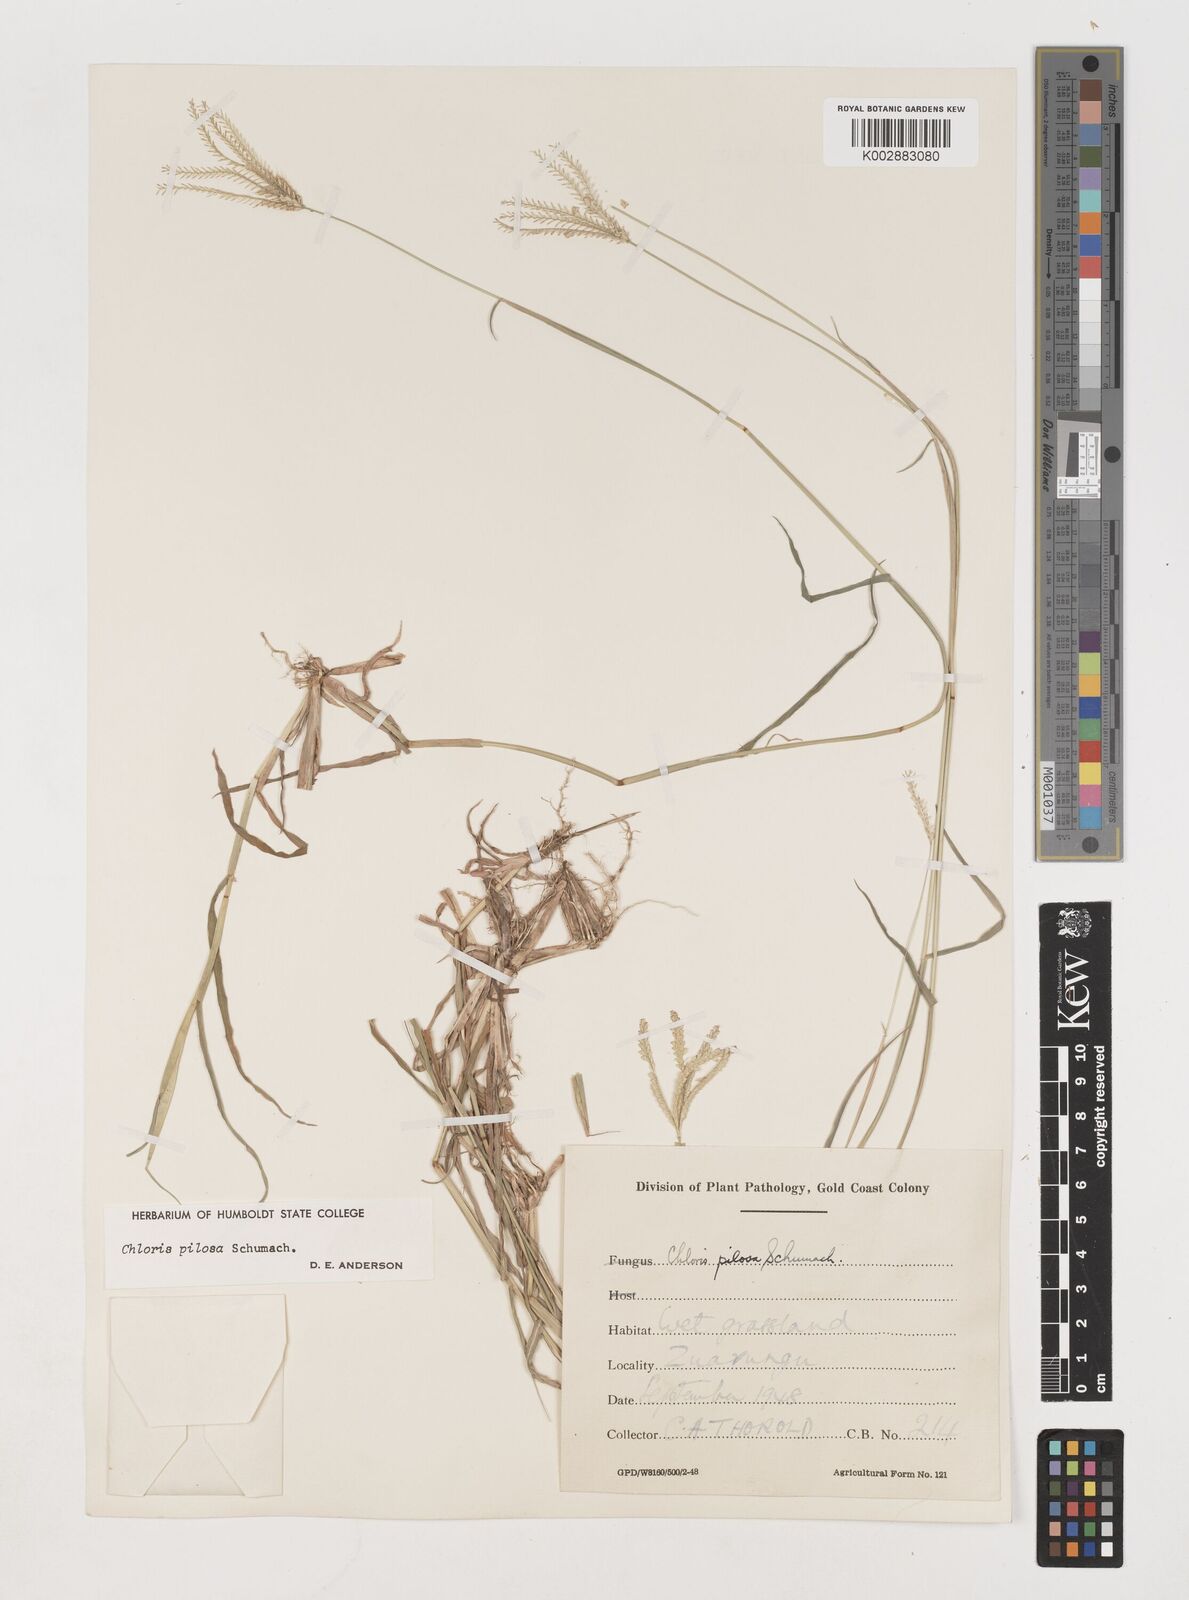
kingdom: Plantae
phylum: Tracheophyta
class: Liliopsida
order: Poales
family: Poaceae
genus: Chloris
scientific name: Chloris pilosa
